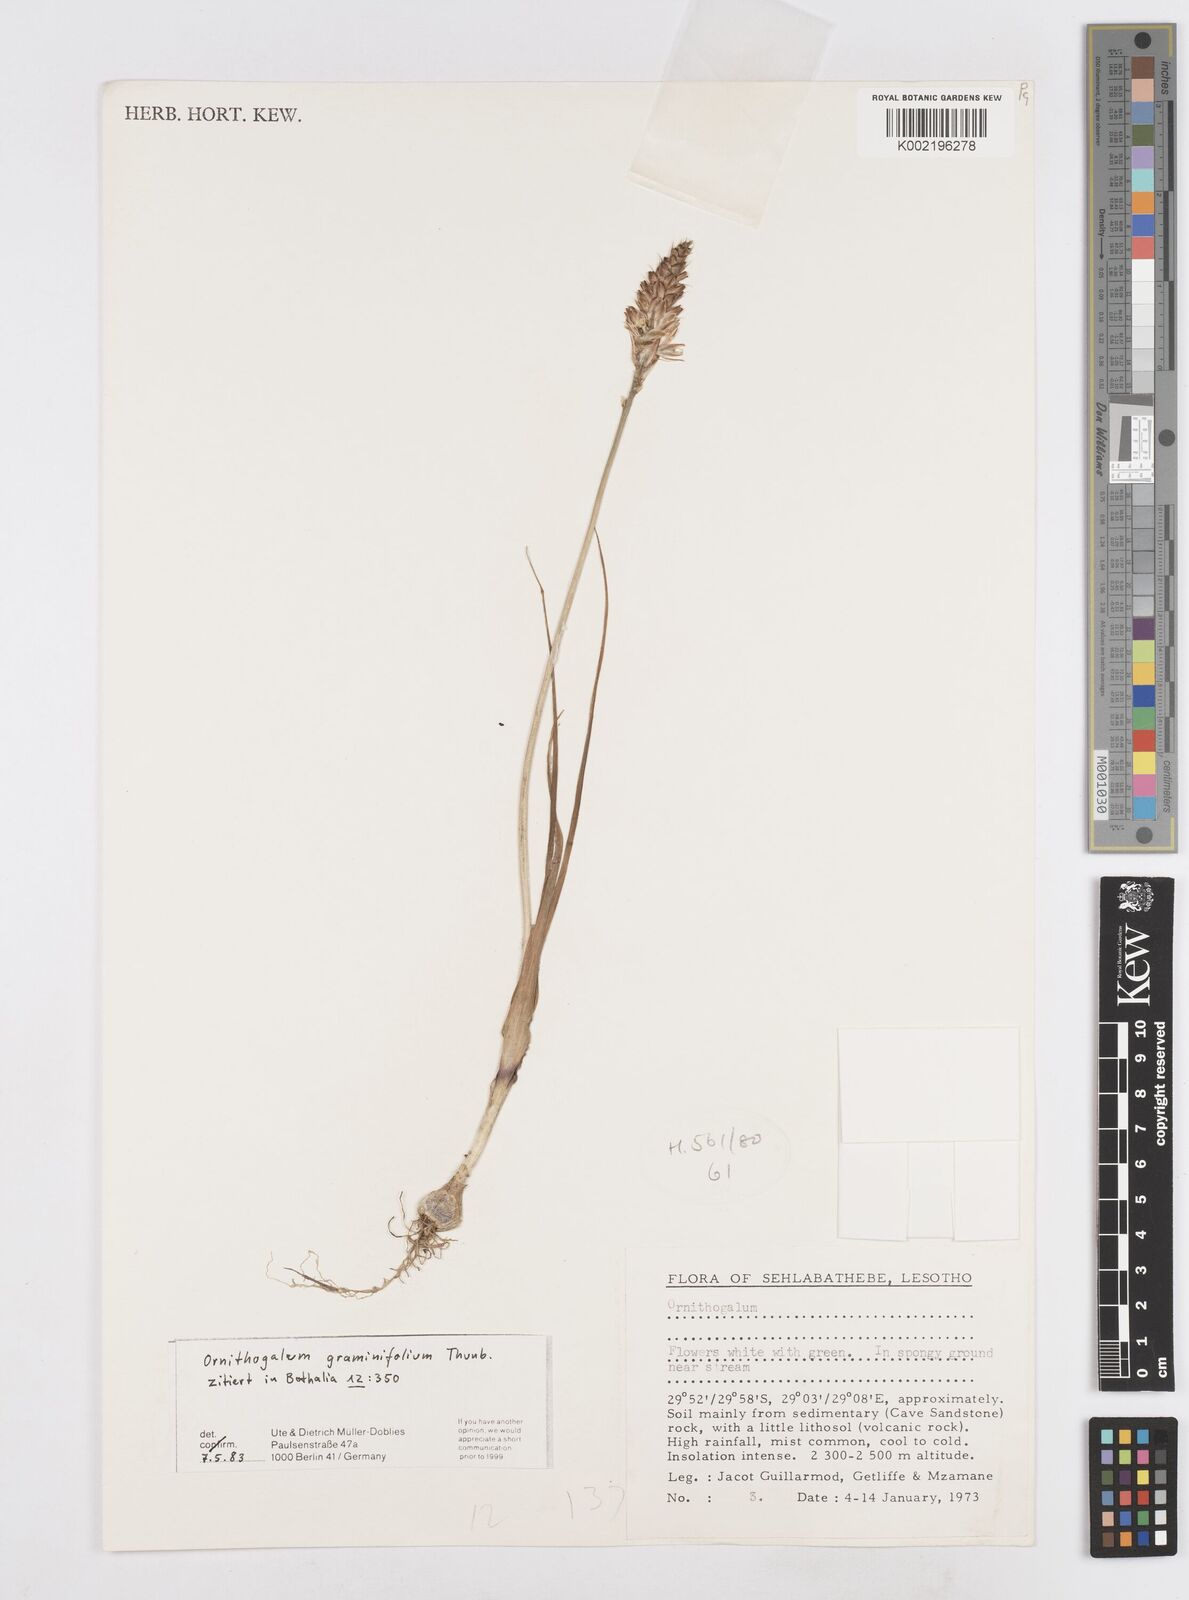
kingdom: Plantae
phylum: Tracheophyta
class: Liliopsida
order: Asparagales
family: Asparagaceae
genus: Ornithogalum
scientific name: Ornithogalum graminifolium
